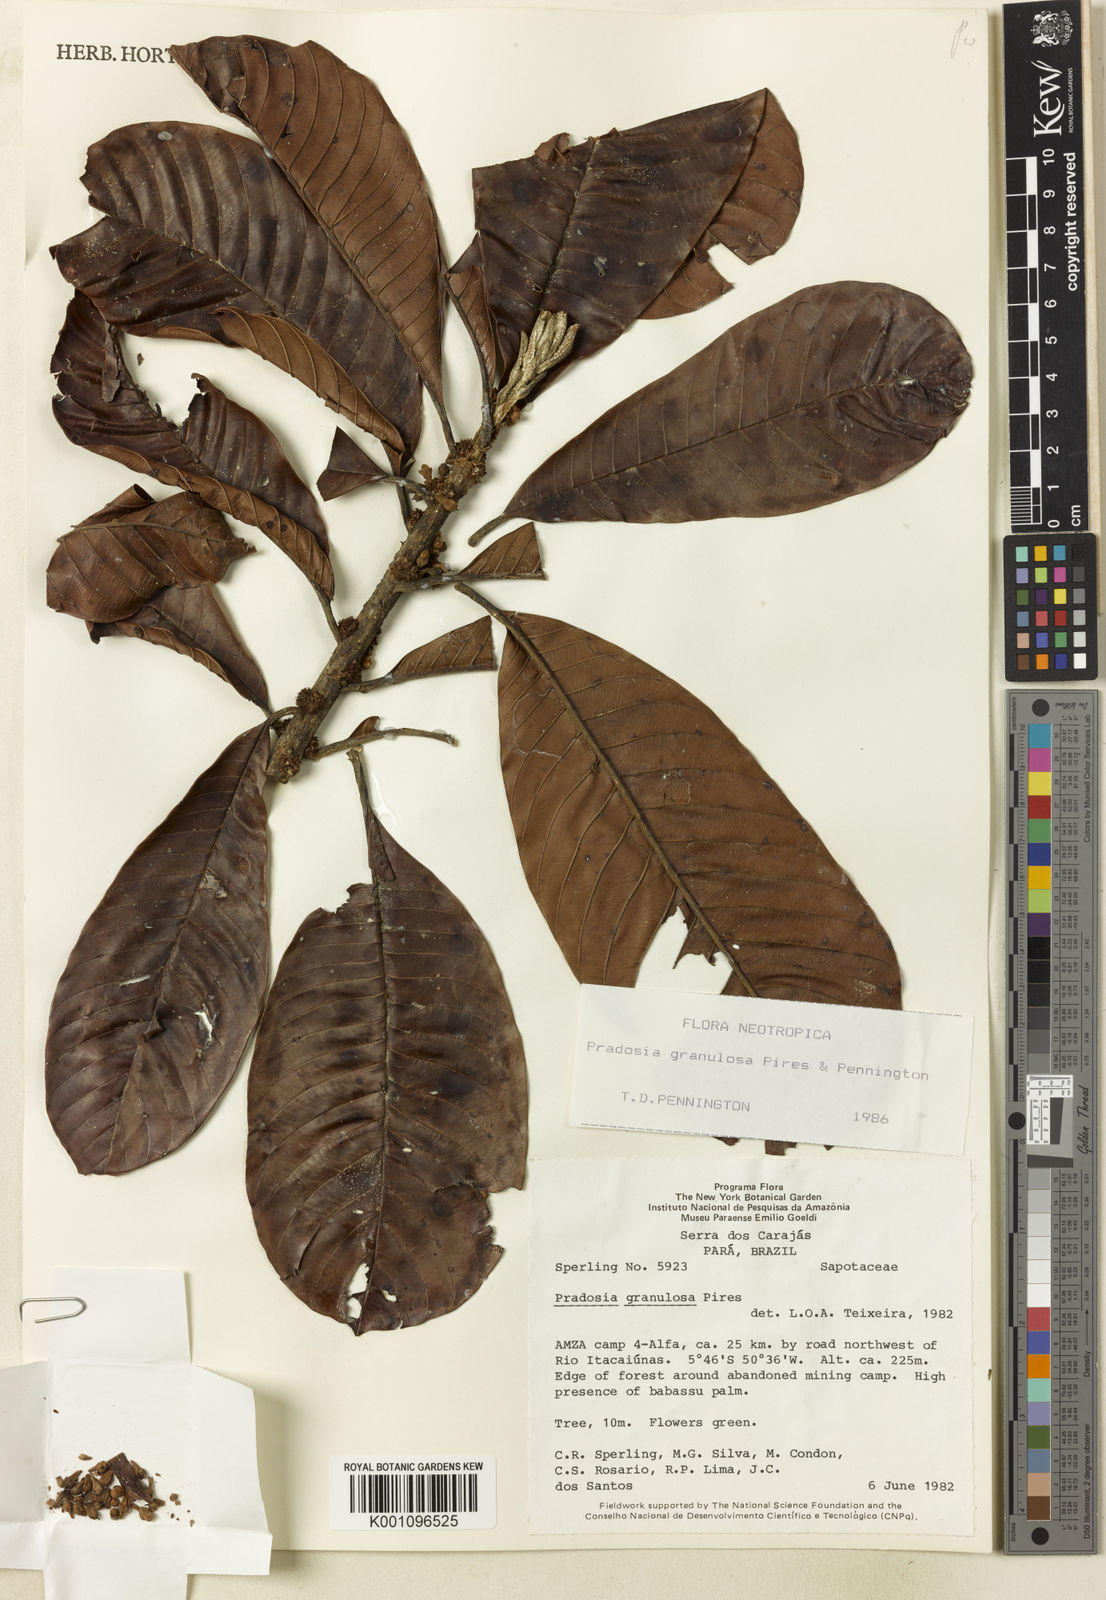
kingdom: Plantae
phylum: Tracheophyta
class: Magnoliopsida
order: Ericales
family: Sapotaceae
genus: Pradosia
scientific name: Pradosia granulosa
